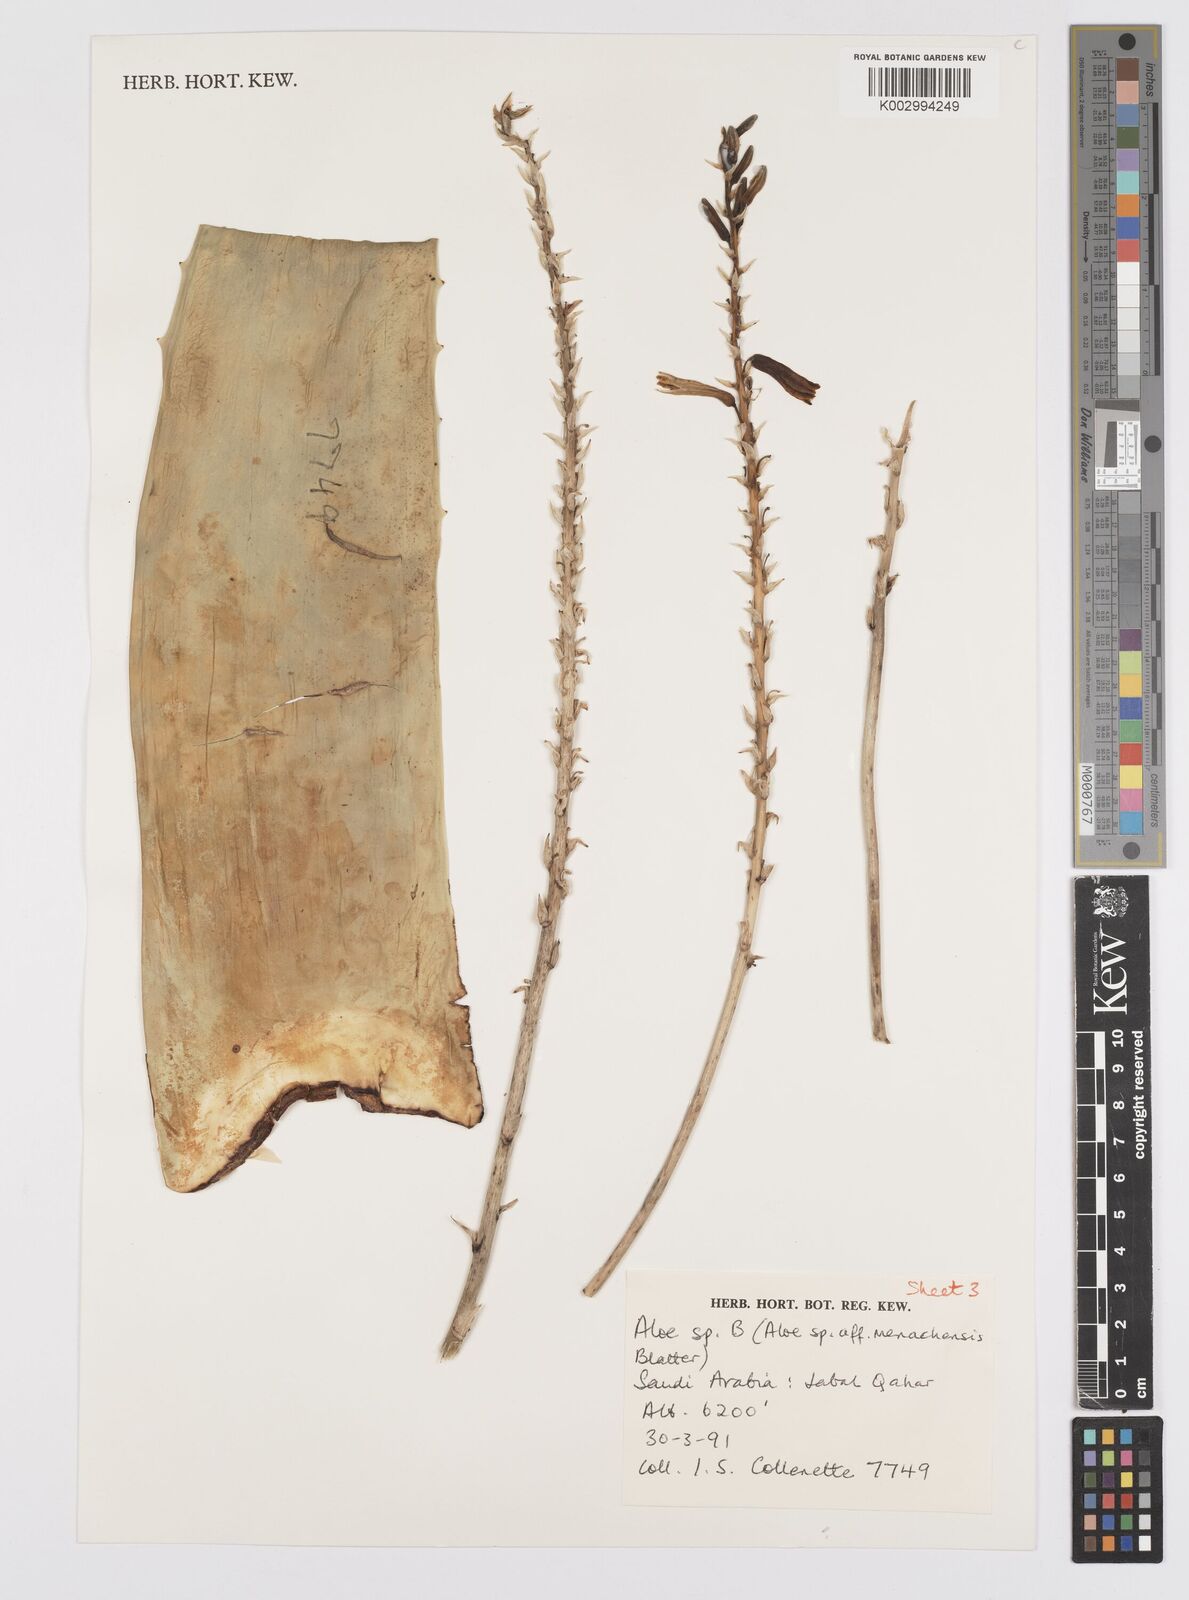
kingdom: Plantae
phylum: Tracheophyta
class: Liliopsida
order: Asparagales
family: Asphodelaceae
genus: Aloe
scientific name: Aloe
